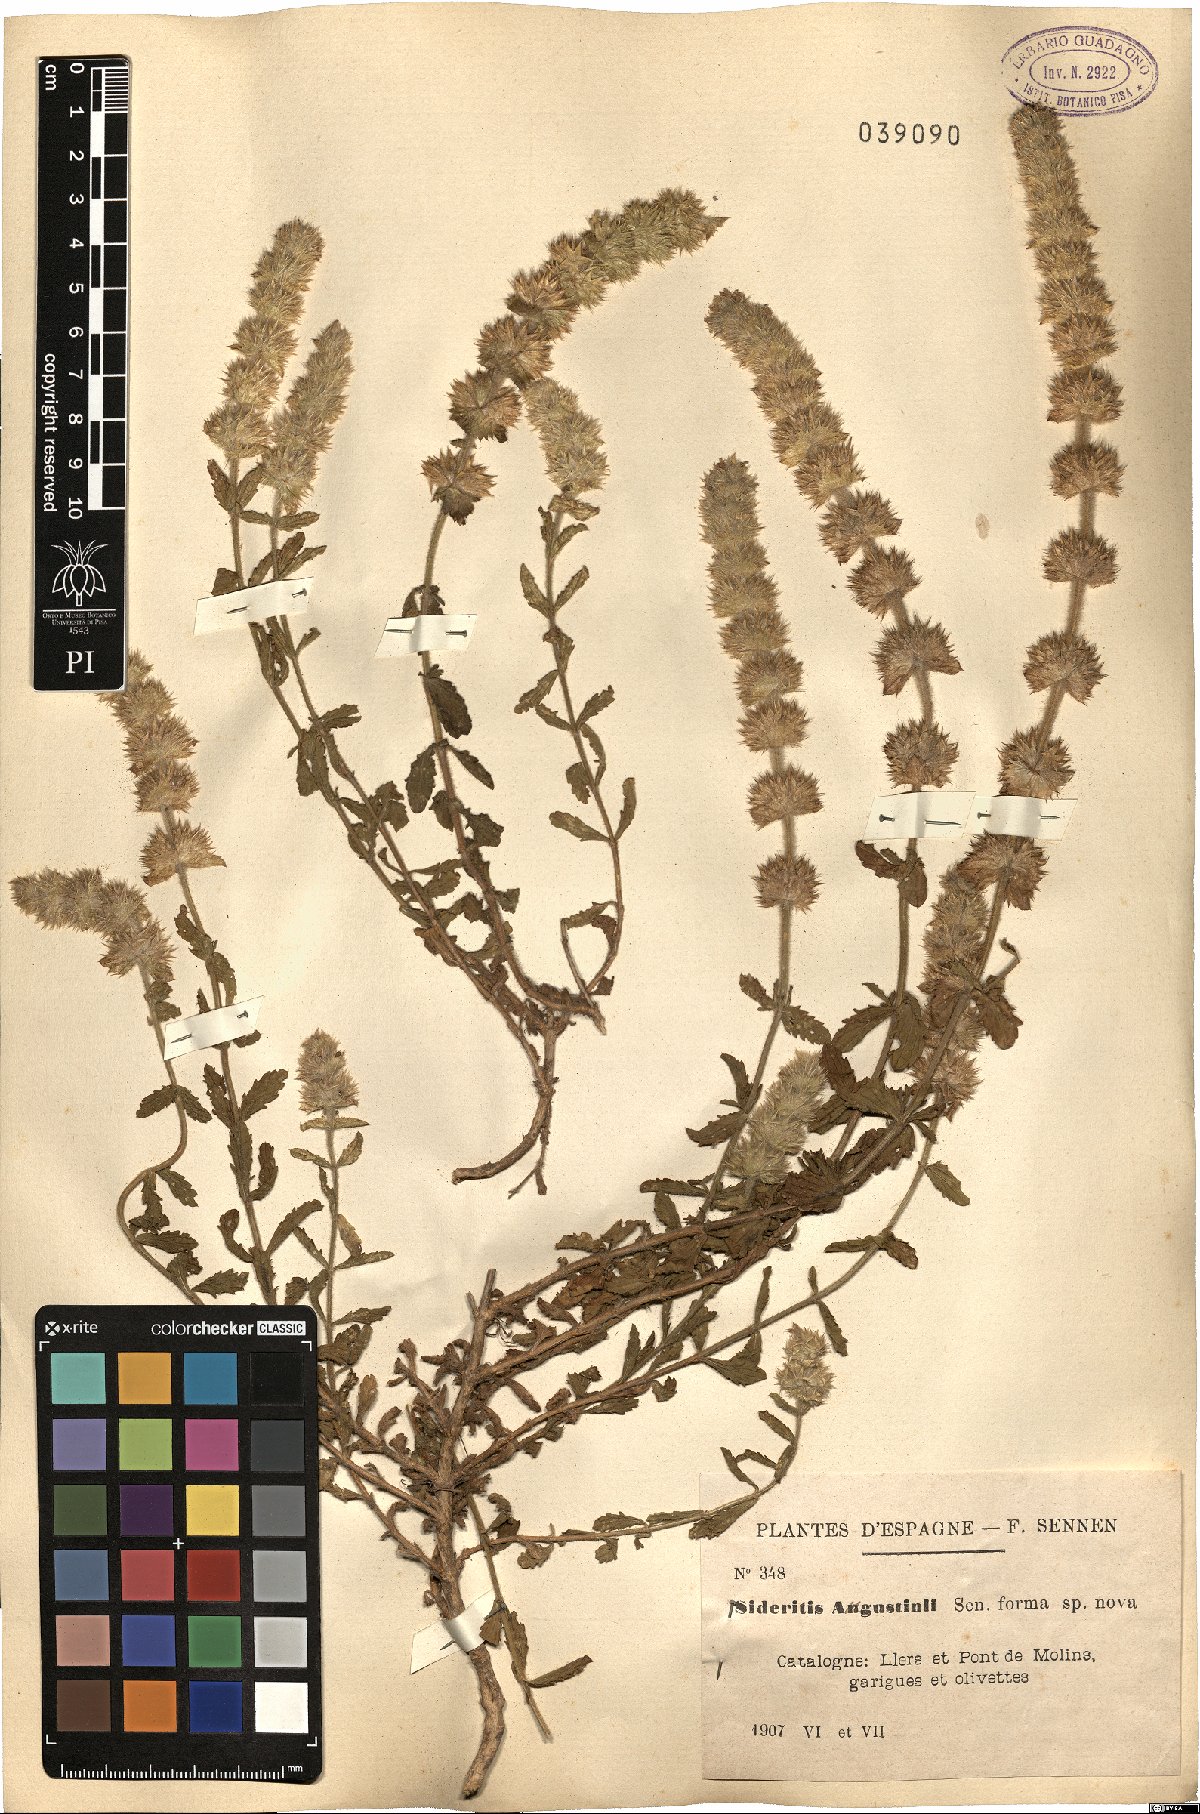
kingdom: Plantae
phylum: Tracheophyta
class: Magnoliopsida
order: Lamiales
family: Lamiaceae
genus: Sideritis
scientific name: Sideritis endressii
